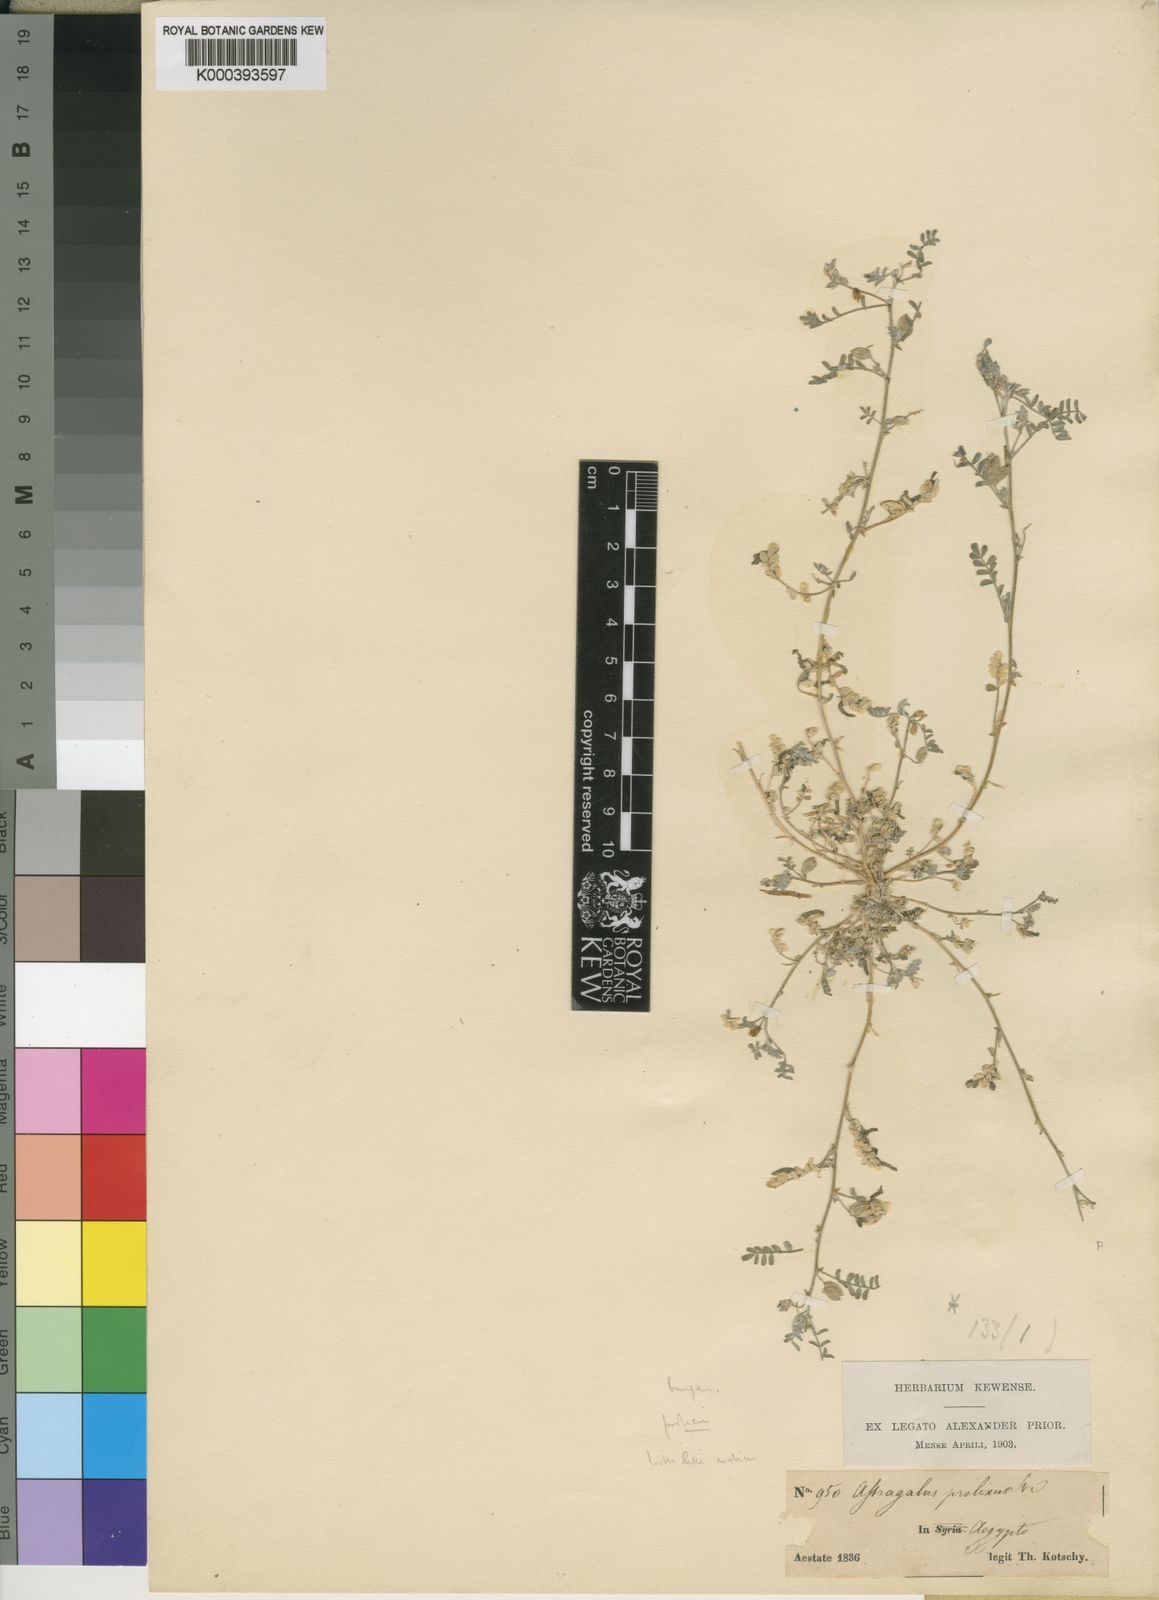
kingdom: Plantae
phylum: Tracheophyta
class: Magnoliopsida
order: Fabales
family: Fabaceae
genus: Astragalus
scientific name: Astragalus
